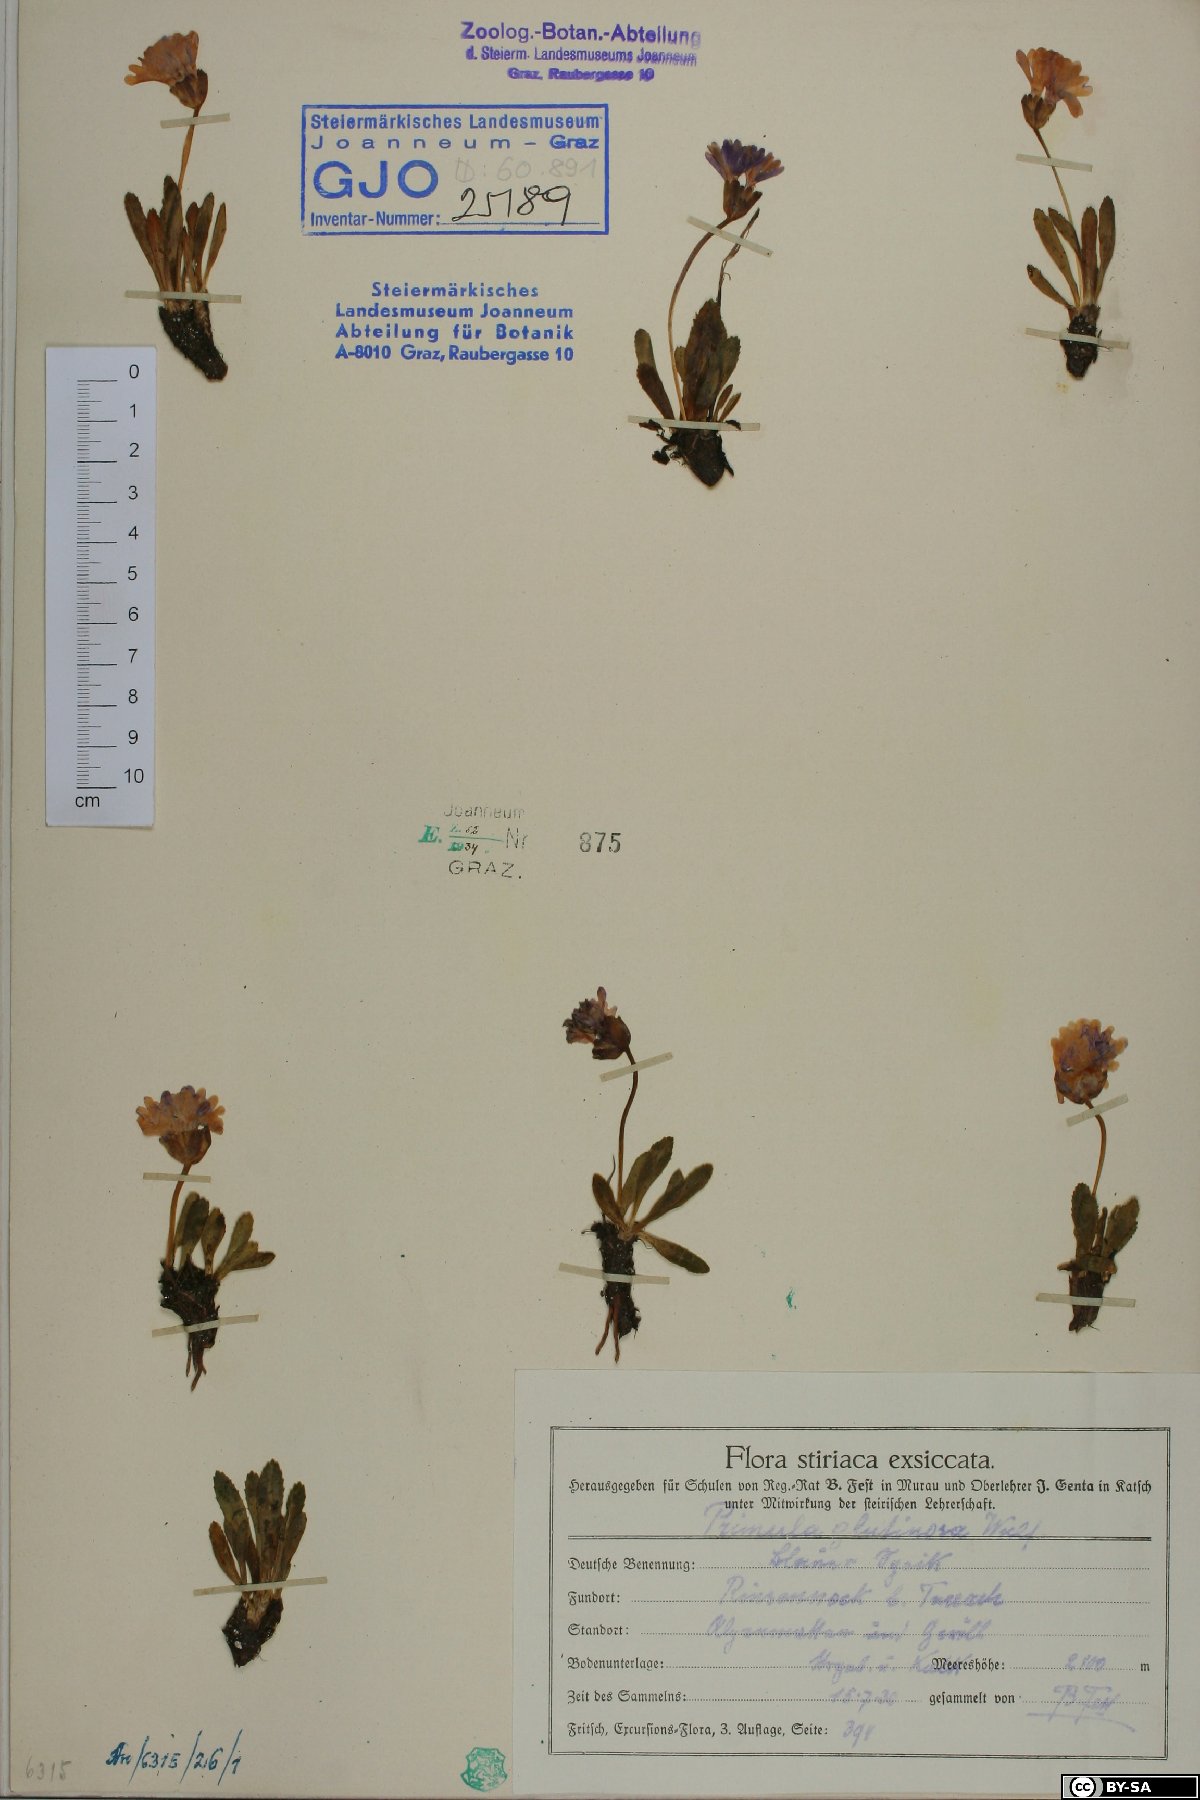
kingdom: Plantae
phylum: Tracheophyta
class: Magnoliopsida
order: Ericales
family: Primulaceae
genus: Primula
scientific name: Primula glutinosa
